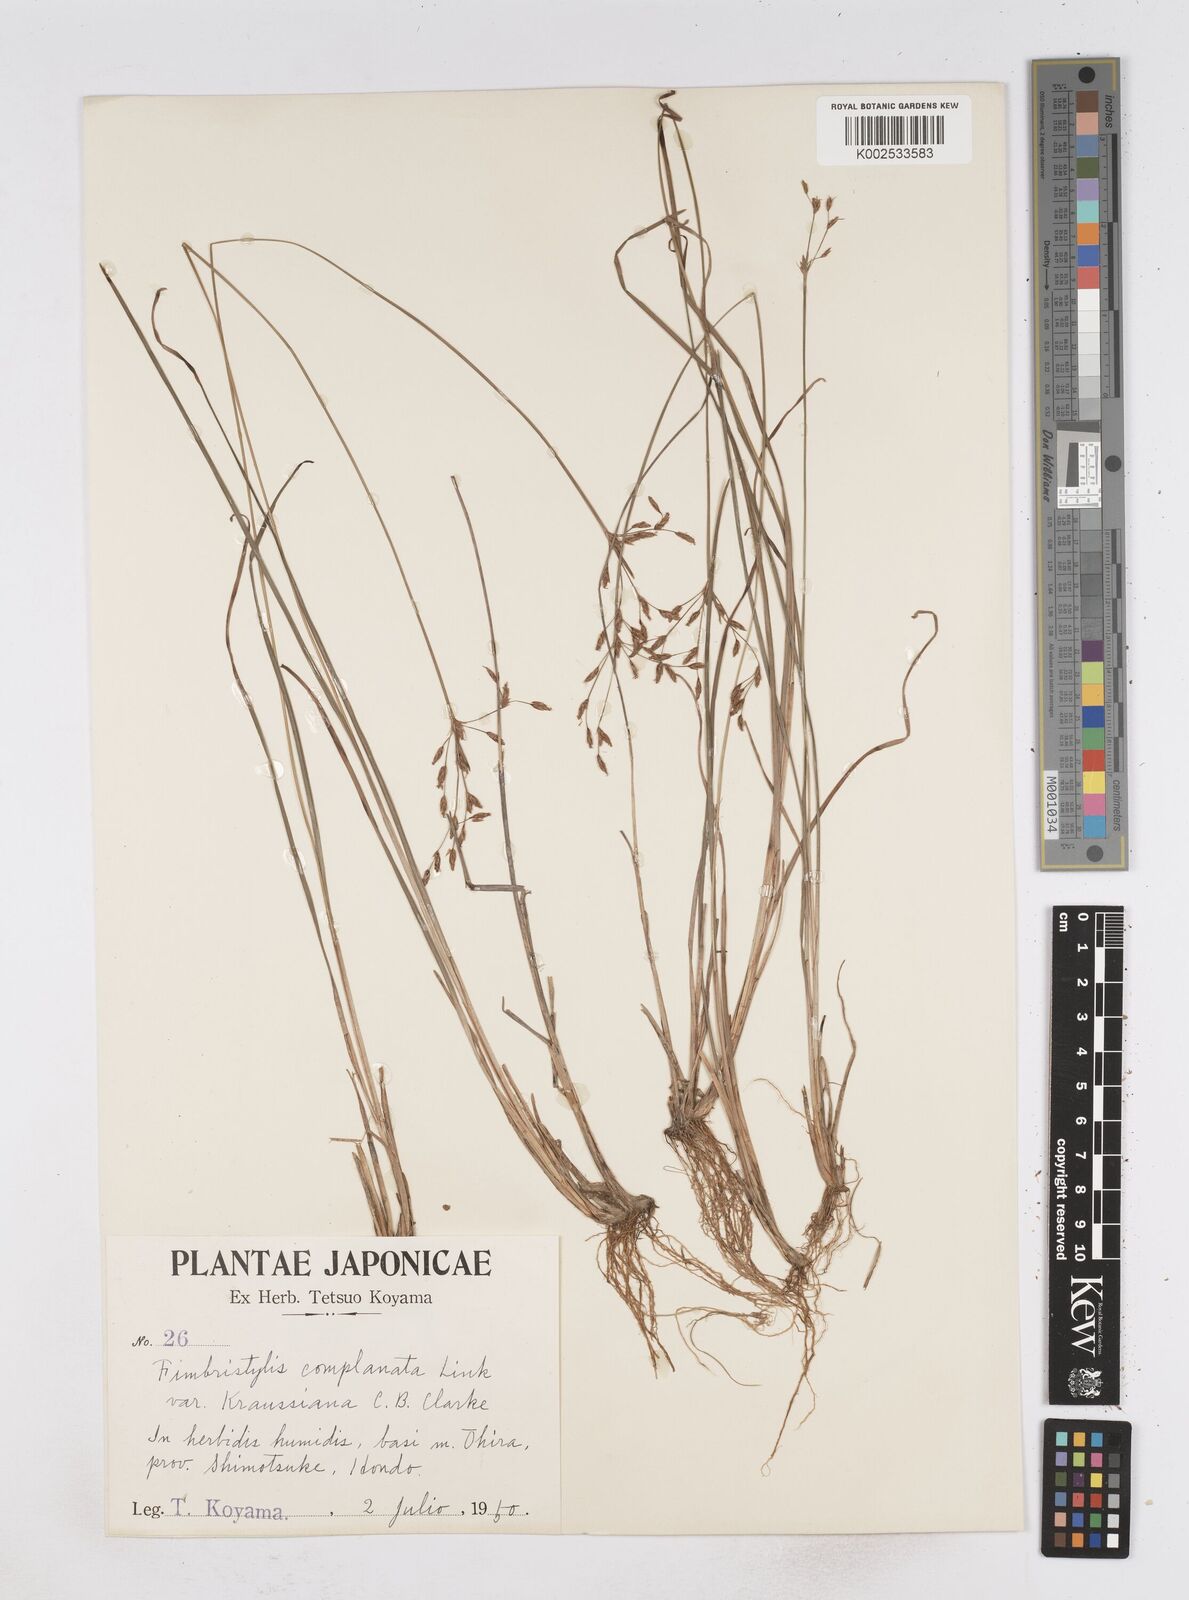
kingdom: Plantae
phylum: Tracheophyta
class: Liliopsida
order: Poales
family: Cyperaceae
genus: Fimbristylis
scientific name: Fimbristylis thomsonii
